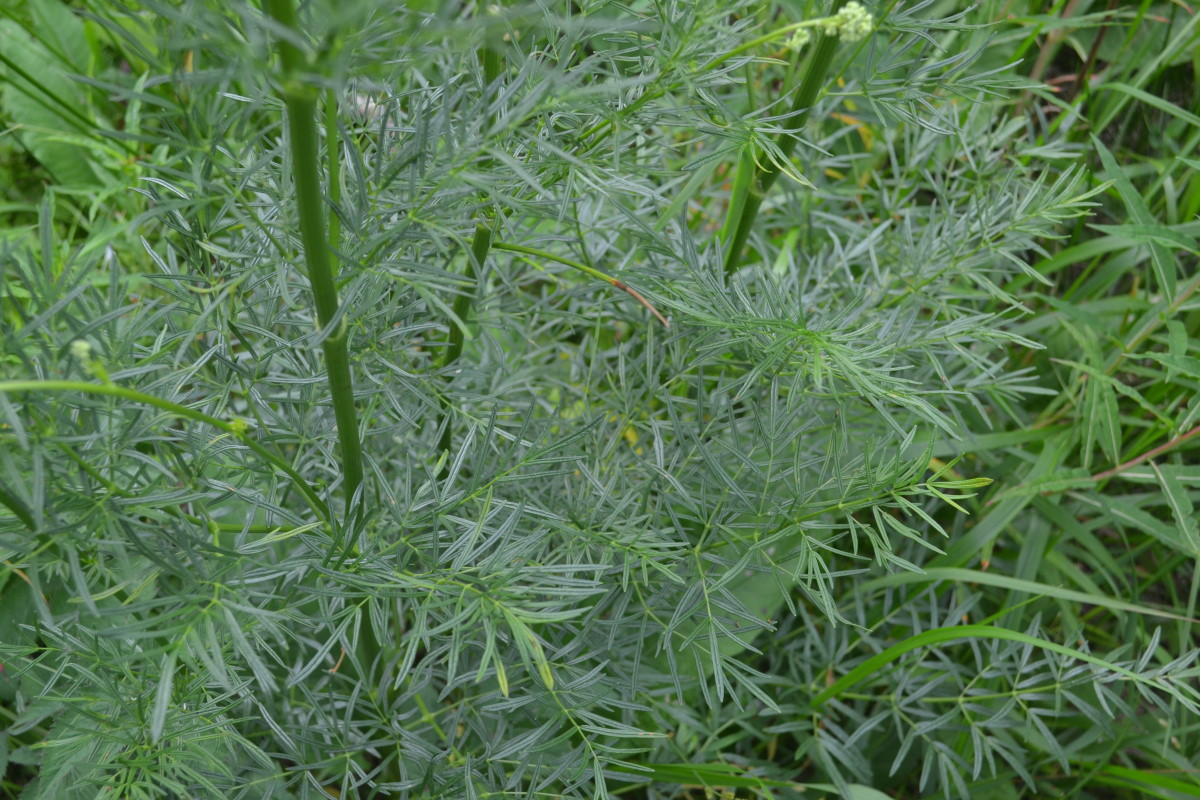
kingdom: Plantae
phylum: Tracheophyta
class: Magnoliopsida
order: Ranunculales
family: Ranunculaceae
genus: Thalictrum
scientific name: Thalictrum lucidum
